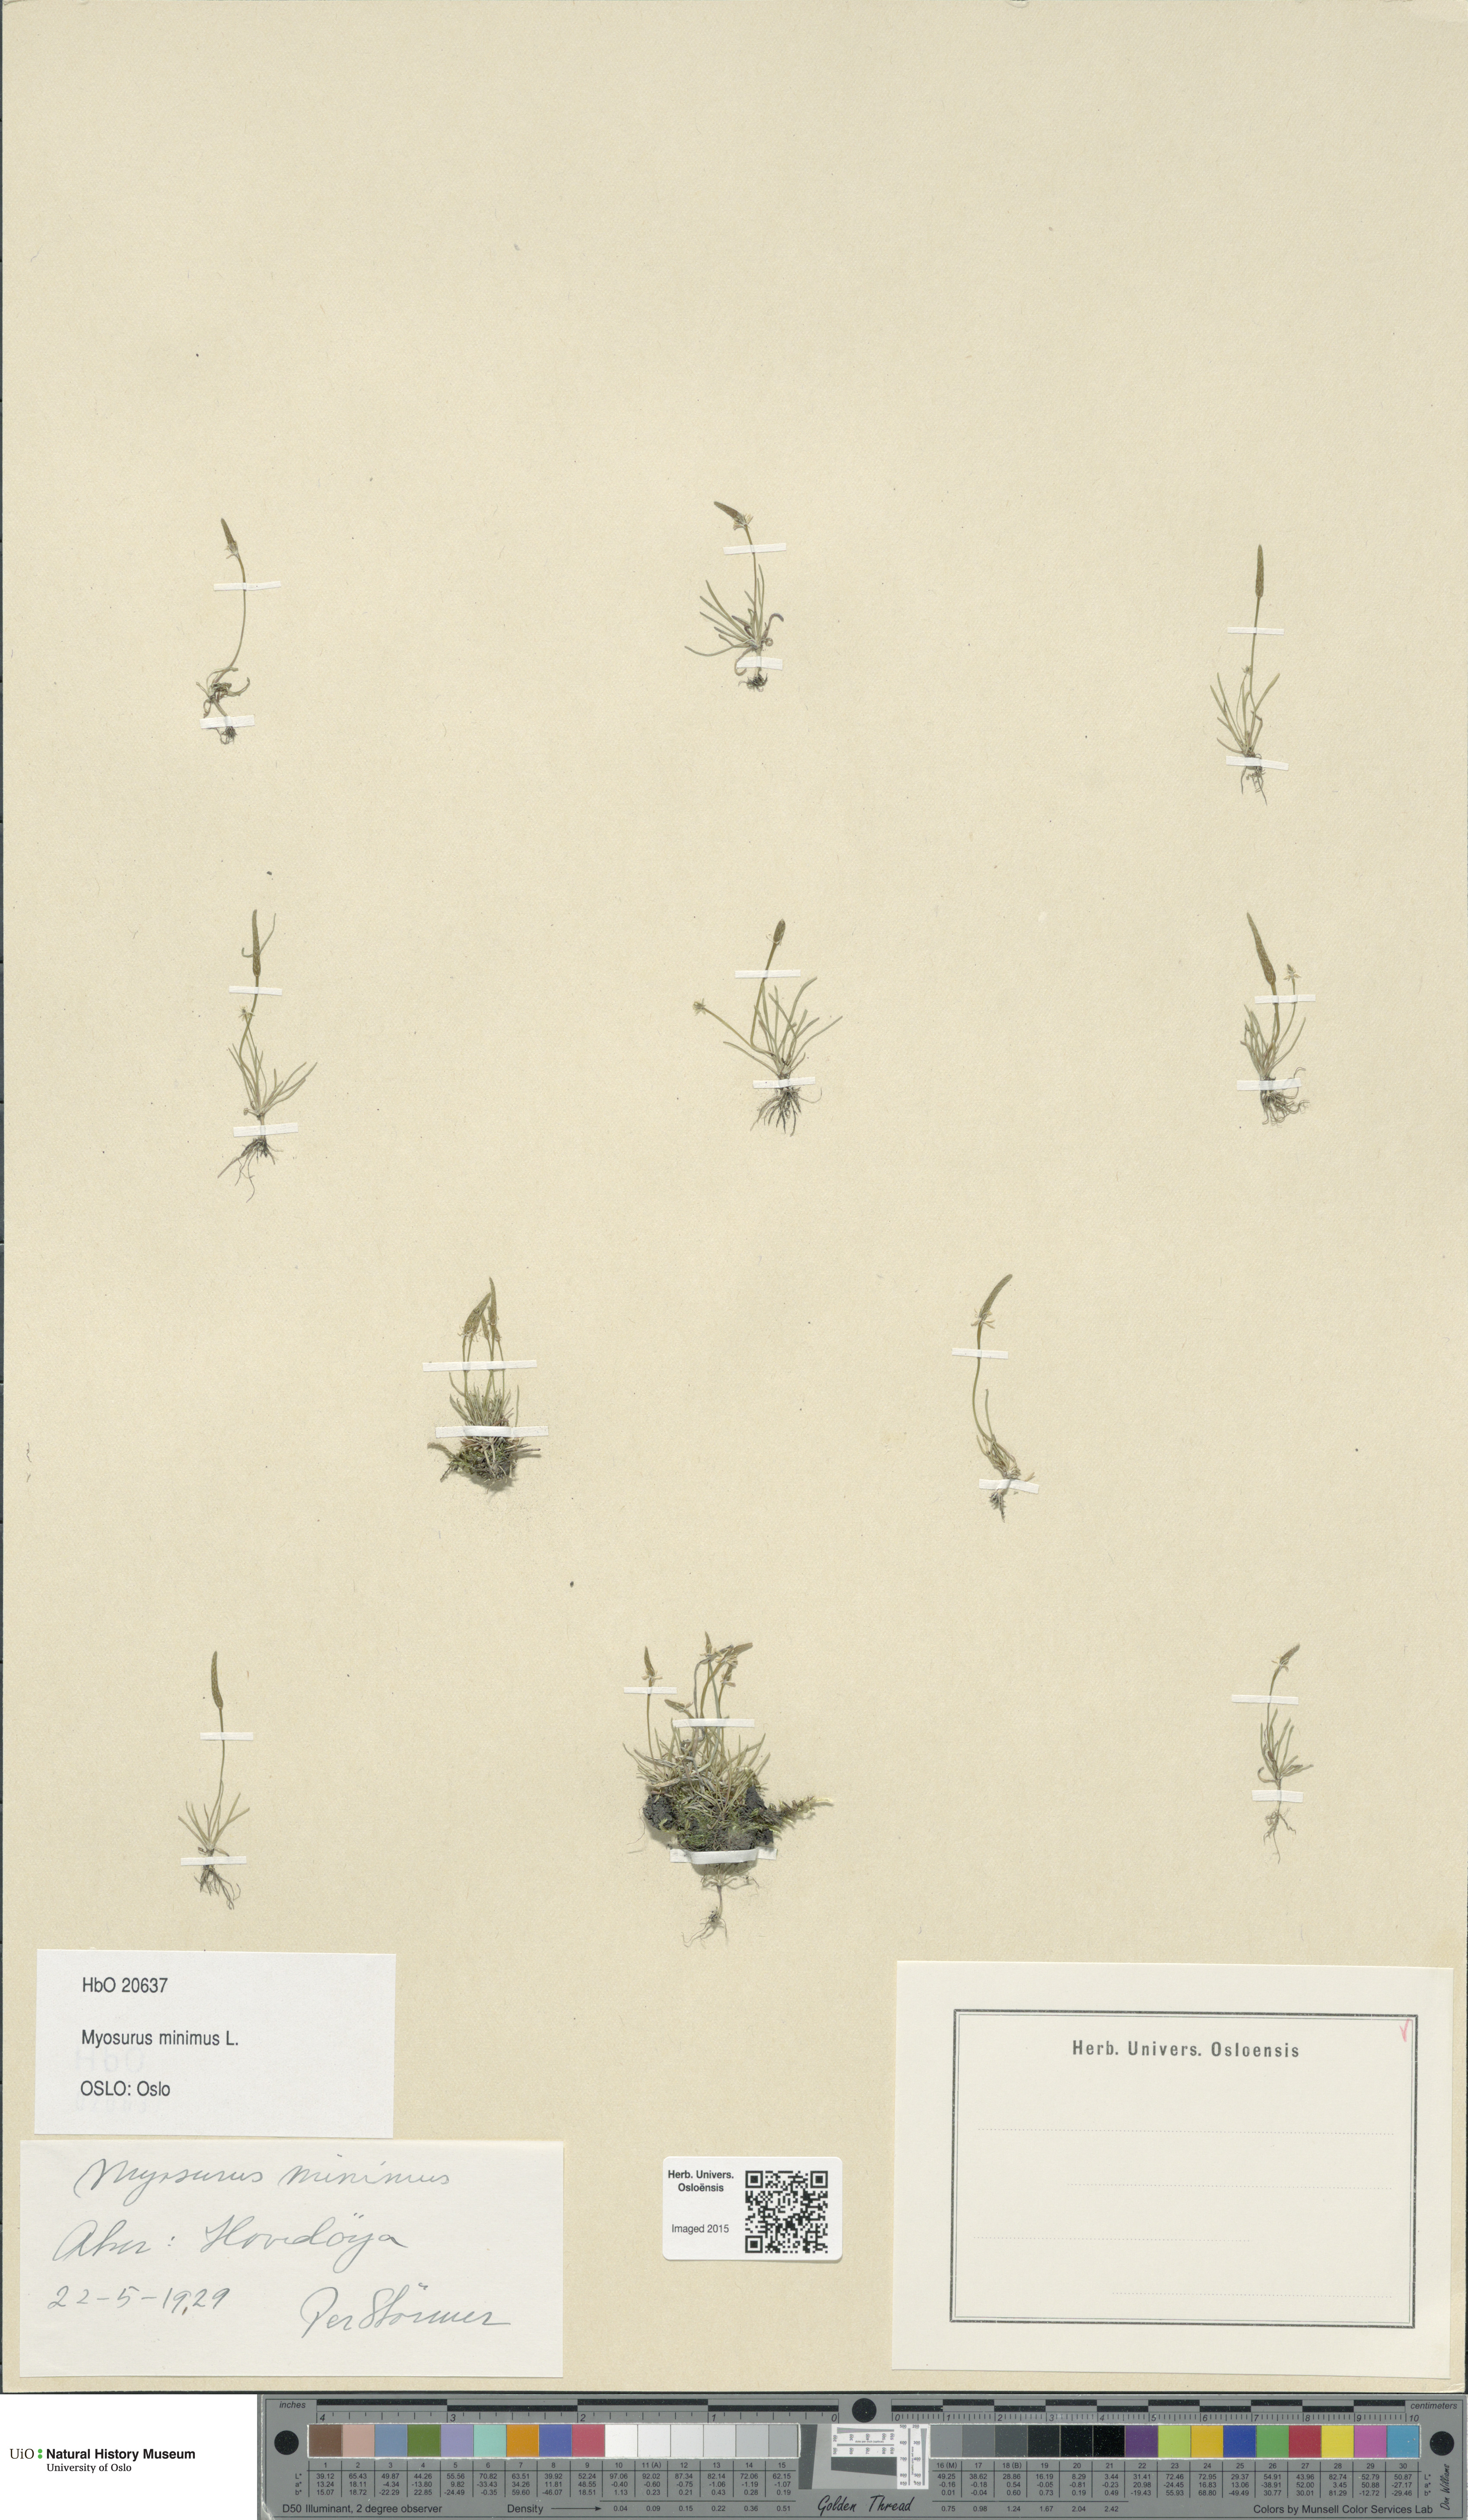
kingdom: Plantae
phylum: Tracheophyta
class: Magnoliopsida
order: Ranunculales
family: Ranunculaceae
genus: Myosurus
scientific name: Myosurus minimus
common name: Mousetail
